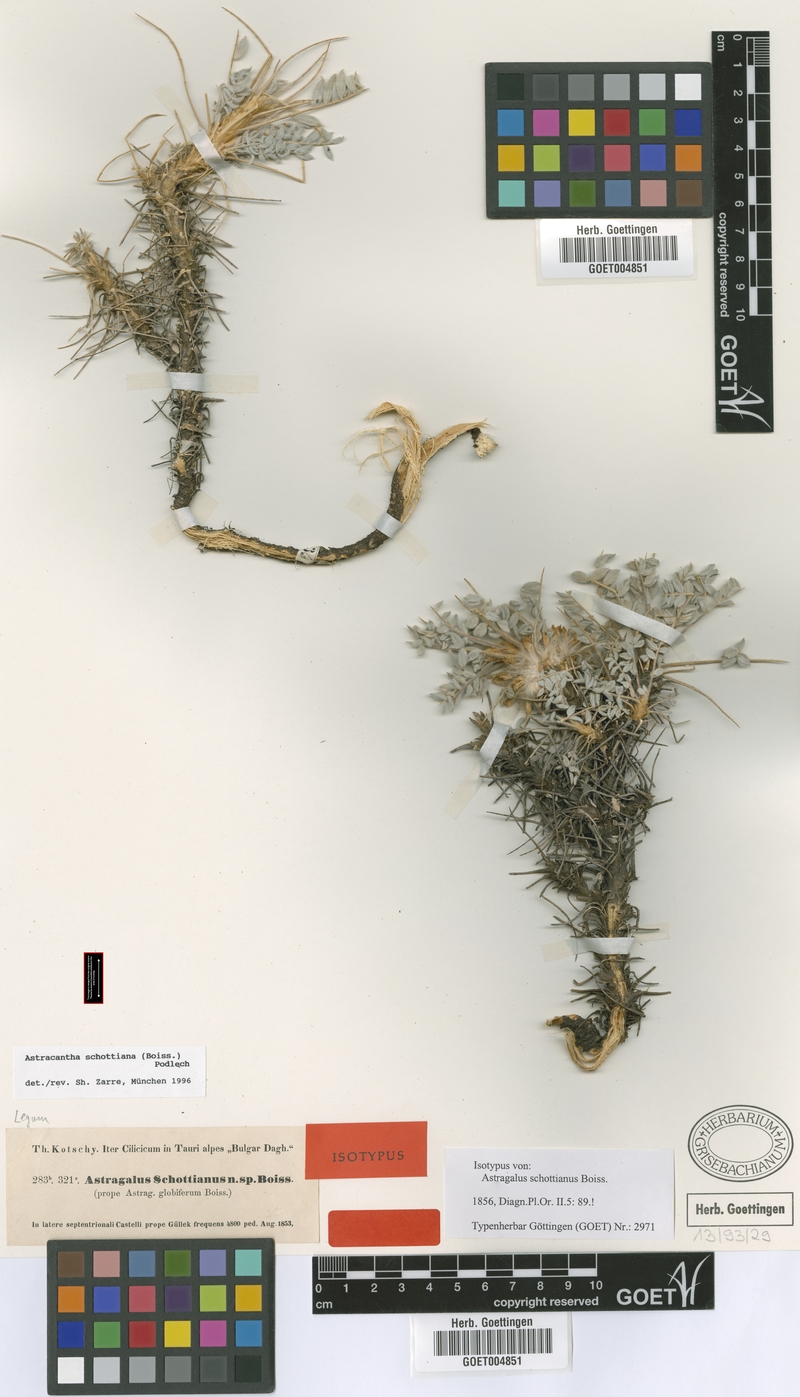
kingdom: Plantae
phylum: Tracheophyta
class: Magnoliopsida
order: Fabales
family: Fabaceae
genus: Astragalus
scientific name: Astragalus schottianus
